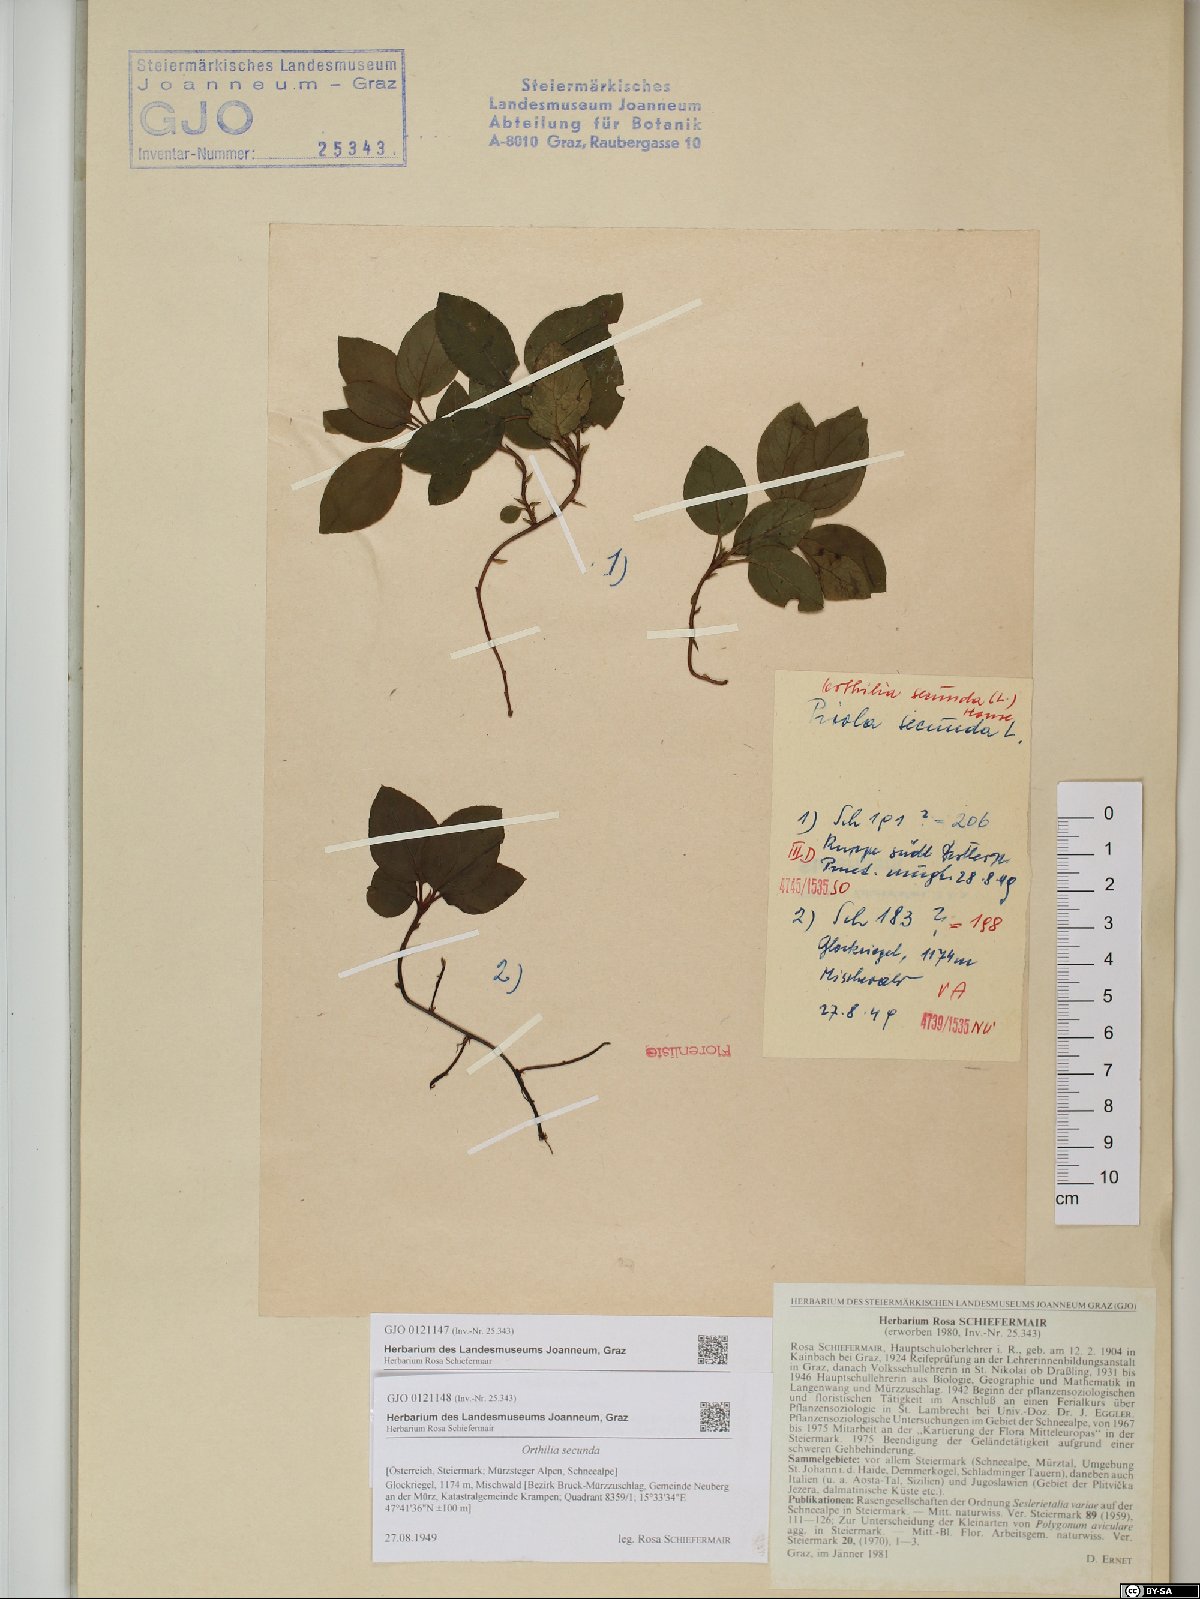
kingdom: Plantae
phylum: Tracheophyta
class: Magnoliopsida
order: Ericales
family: Ericaceae
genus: Orthilia
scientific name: Orthilia secunda
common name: One-sided orthilia
